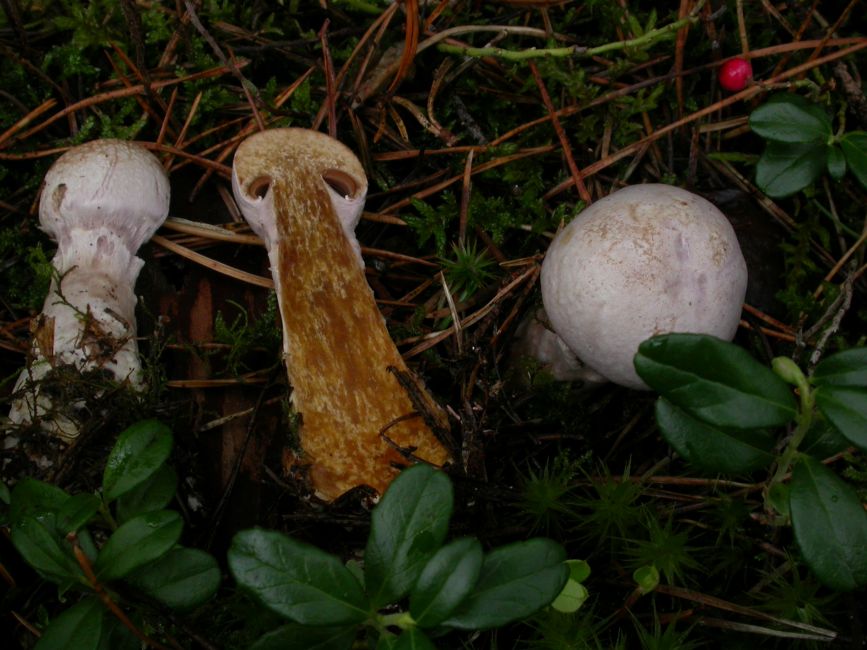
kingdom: Fungi
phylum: Basidiomycota
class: Agaricomycetes
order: Agaricales
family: Cortinariaceae
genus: Cortinarius
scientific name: Cortinarius traganus
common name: safrankødet slørhat
